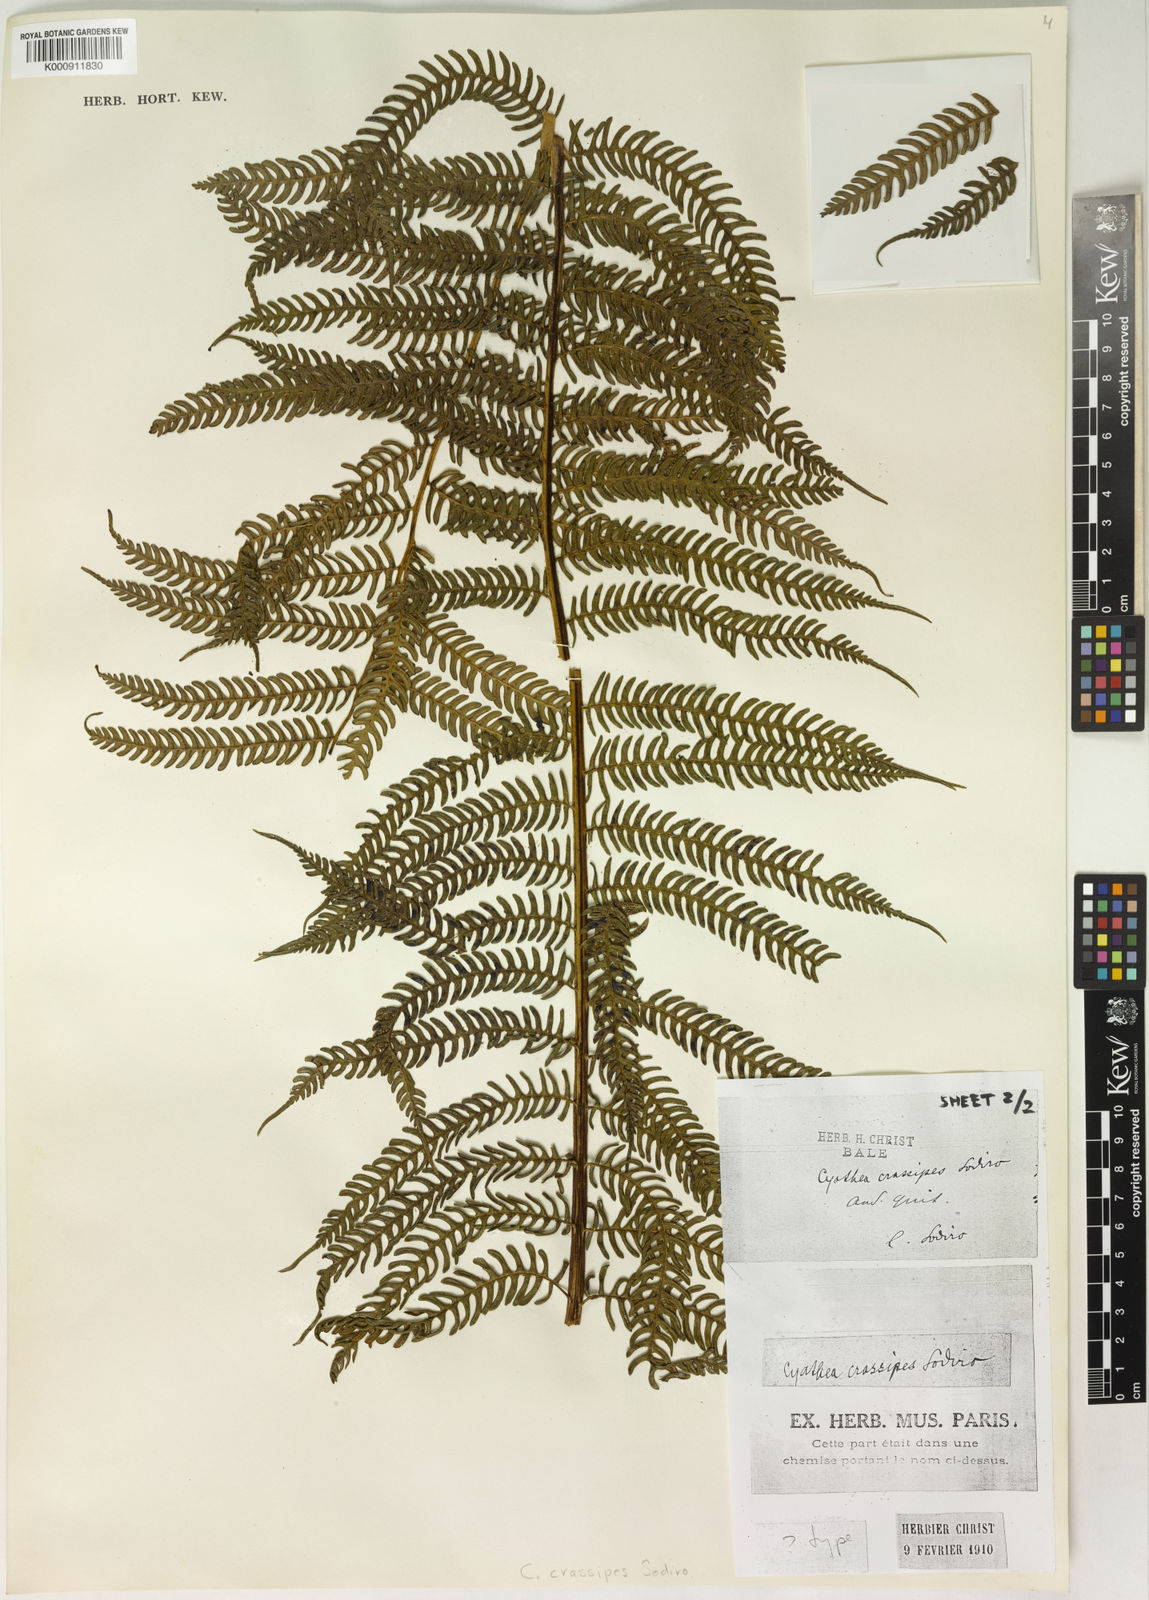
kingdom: Plantae
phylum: Tracheophyta
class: Polypodiopsida
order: Cyatheales
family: Cyatheaceae
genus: Sphaeropteris
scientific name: Sphaeropteris quindiuensis
